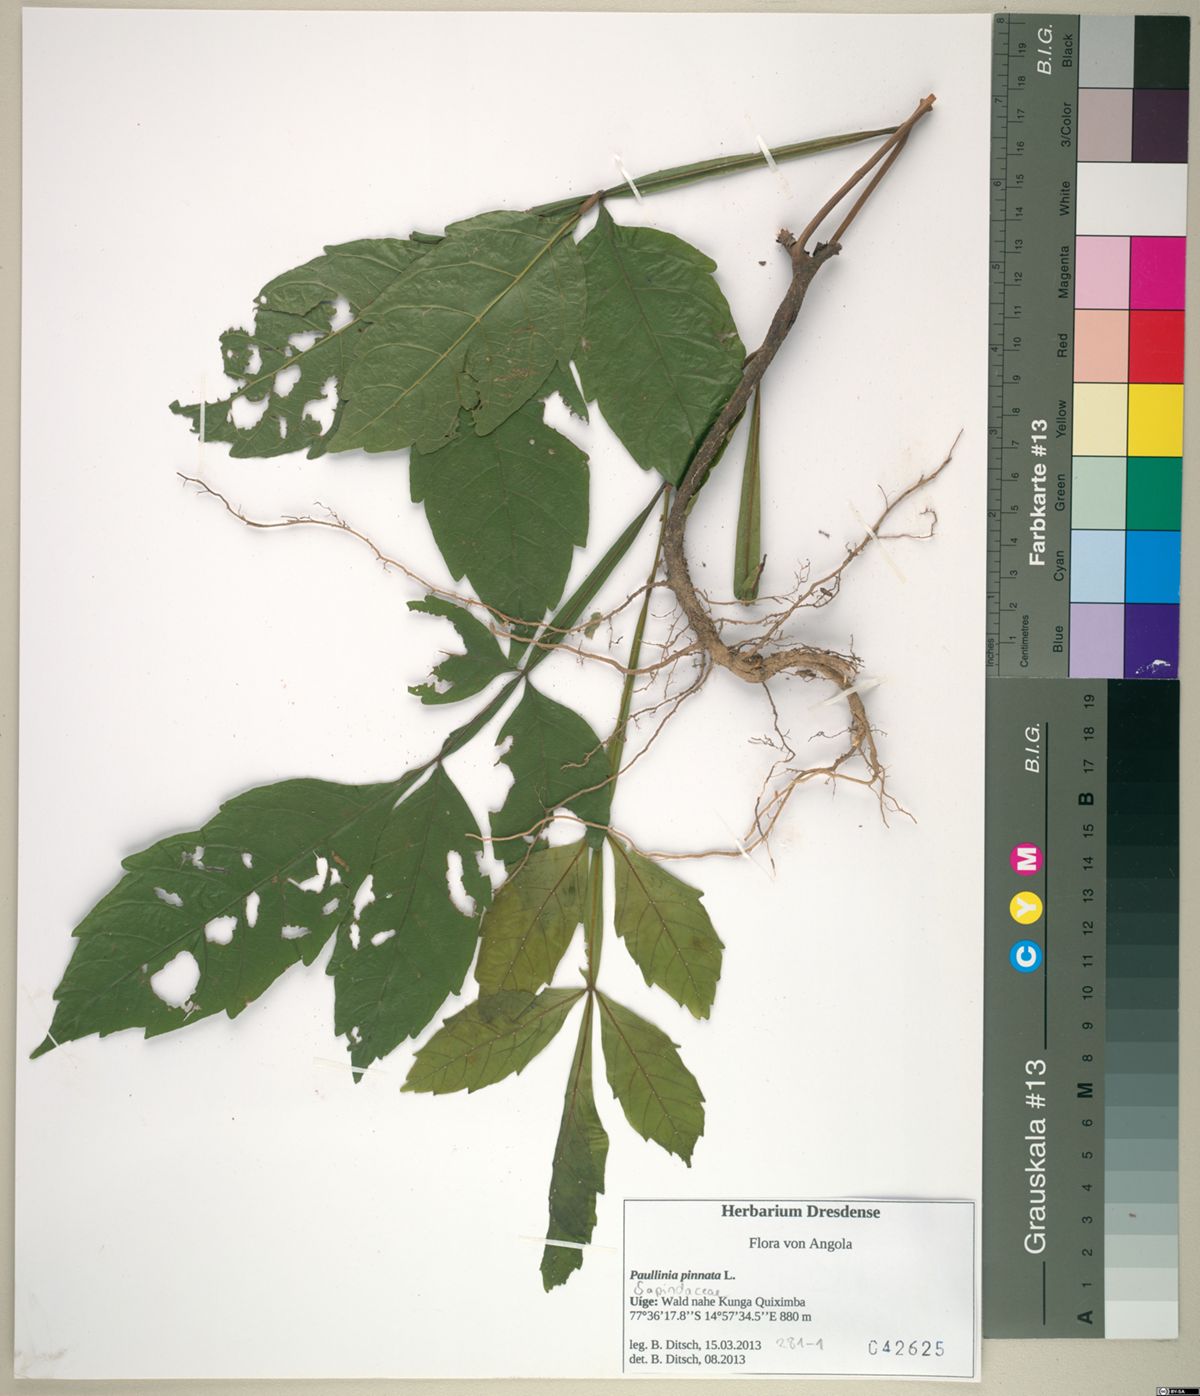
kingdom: Plantae
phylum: Tracheophyta
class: Magnoliopsida
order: Sapindales
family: Sapindaceae
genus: Paullinia
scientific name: Paullinia pinnata
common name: Barbasco
